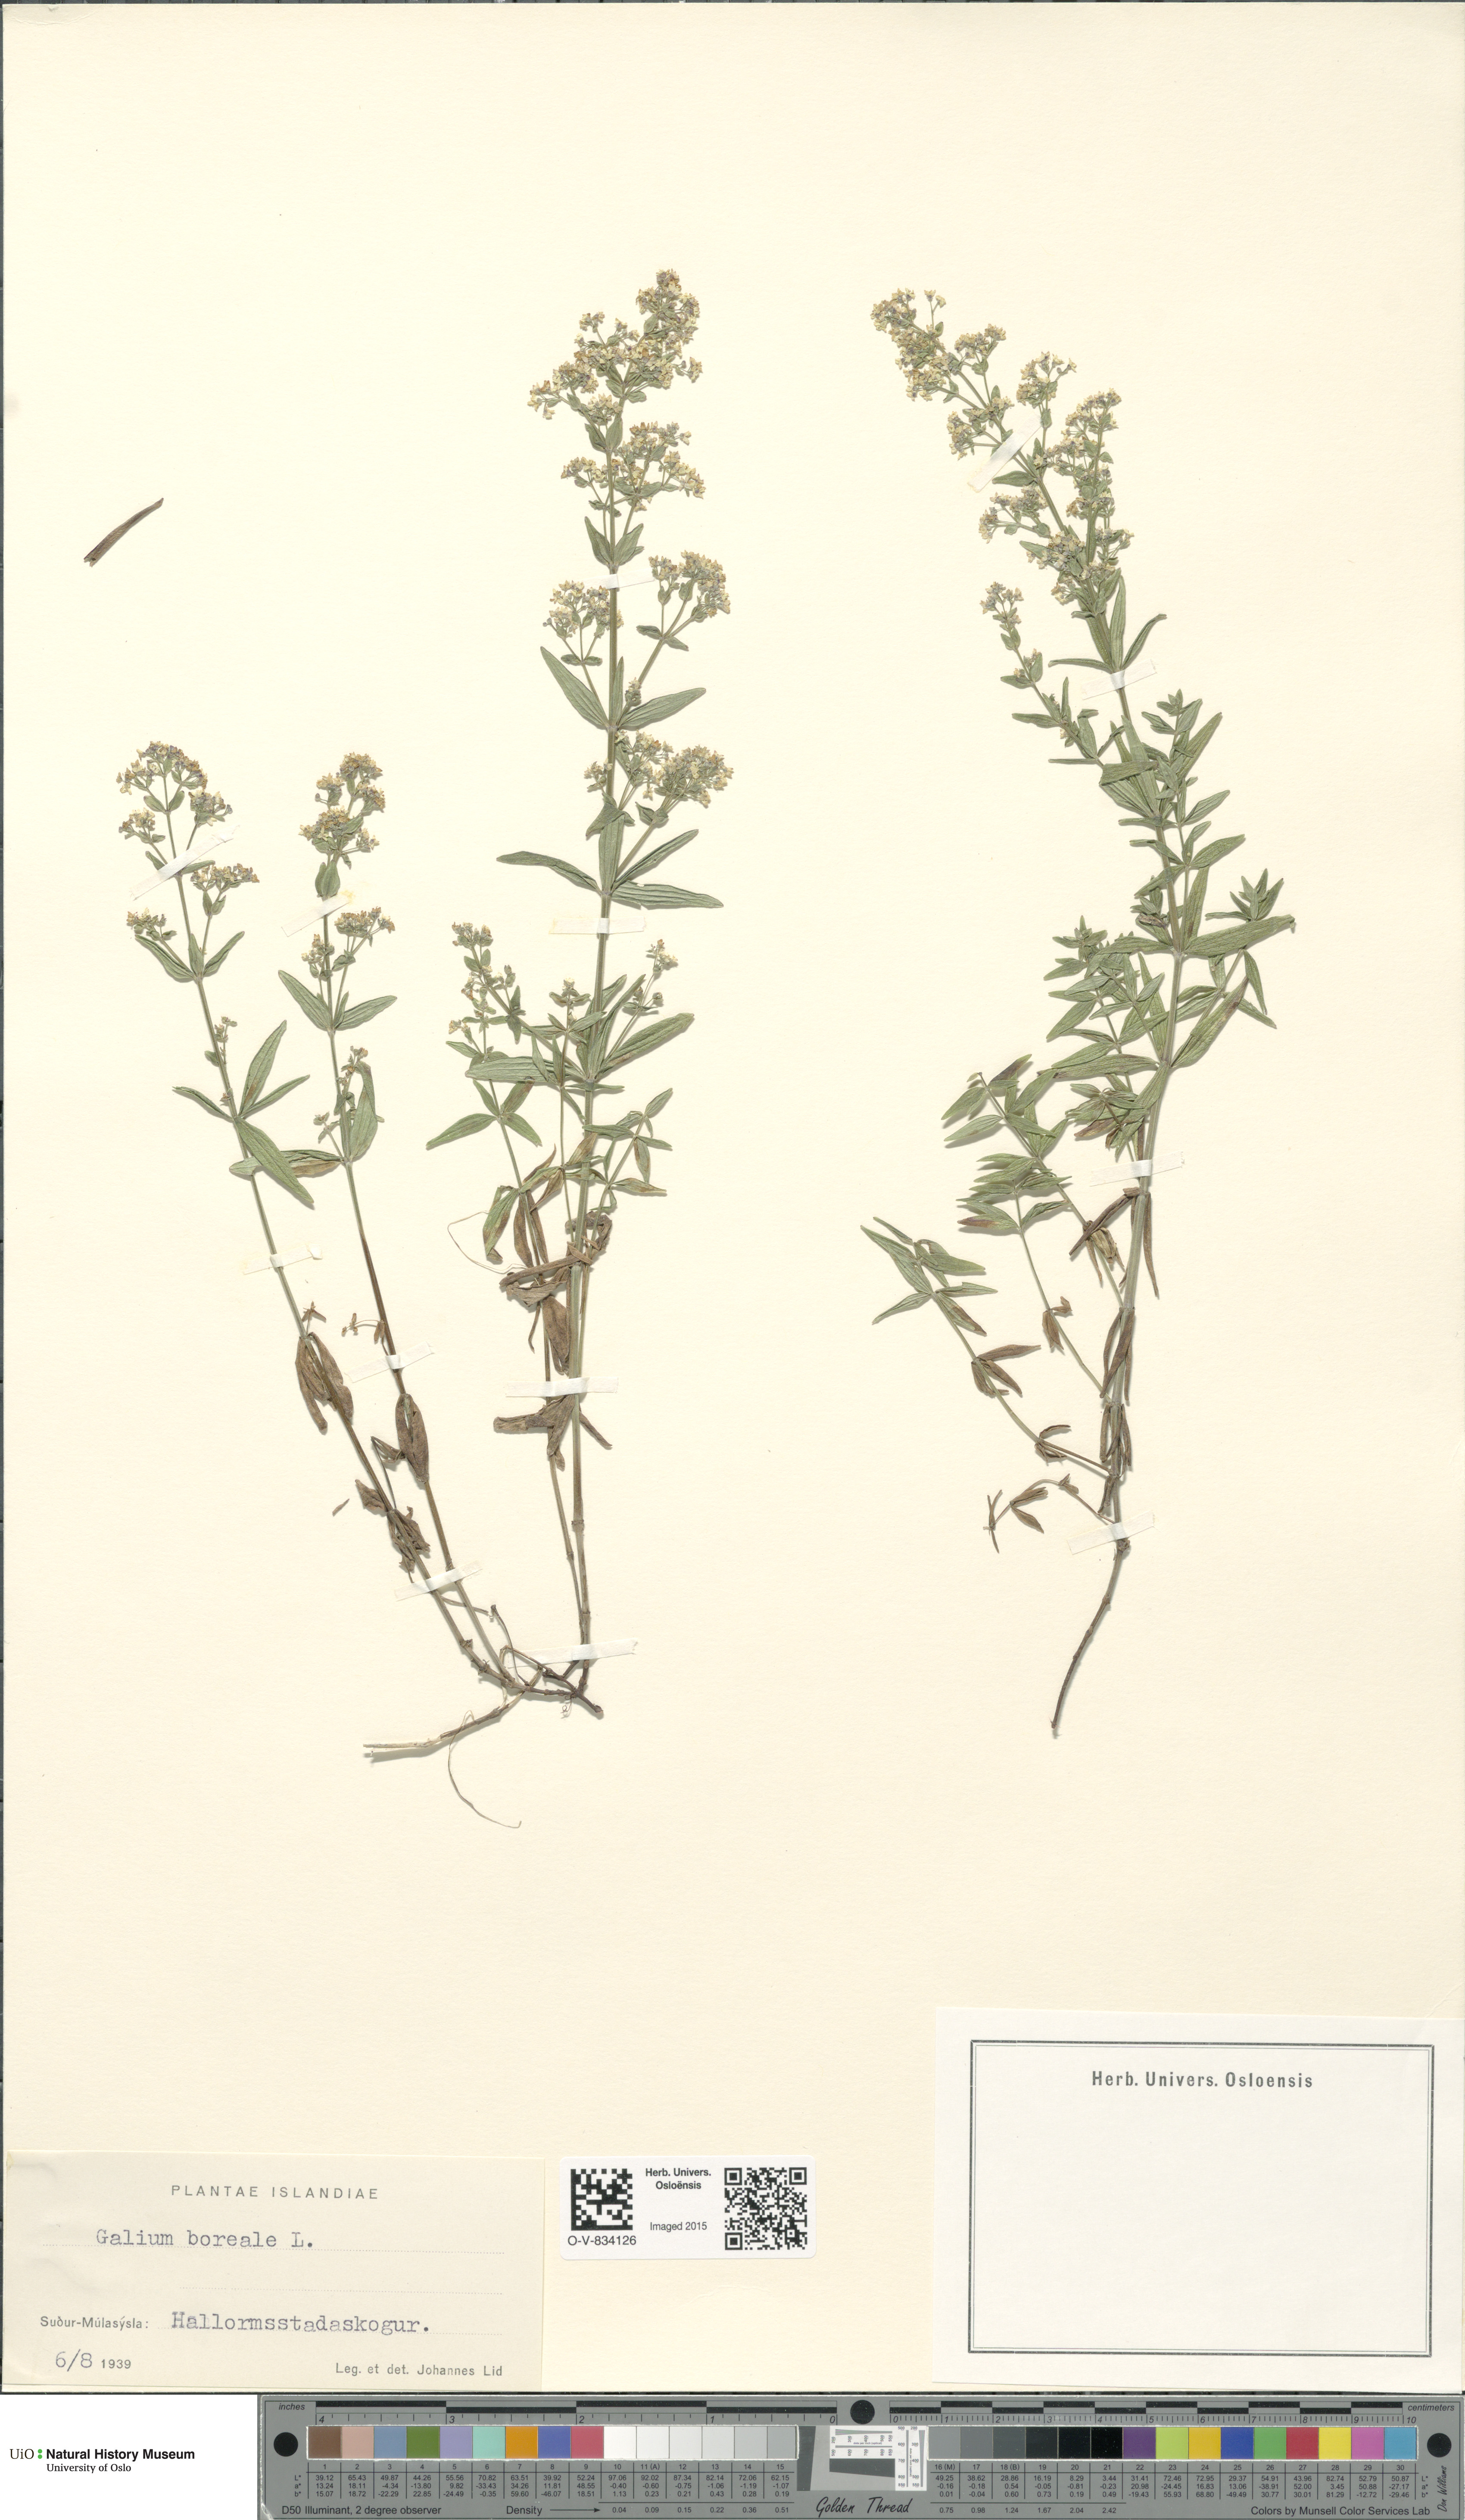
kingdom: Plantae
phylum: Tracheophyta
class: Magnoliopsida
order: Gentianales
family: Rubiaceae
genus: Galium
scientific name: Galium boreale
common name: Northern bedstraw
